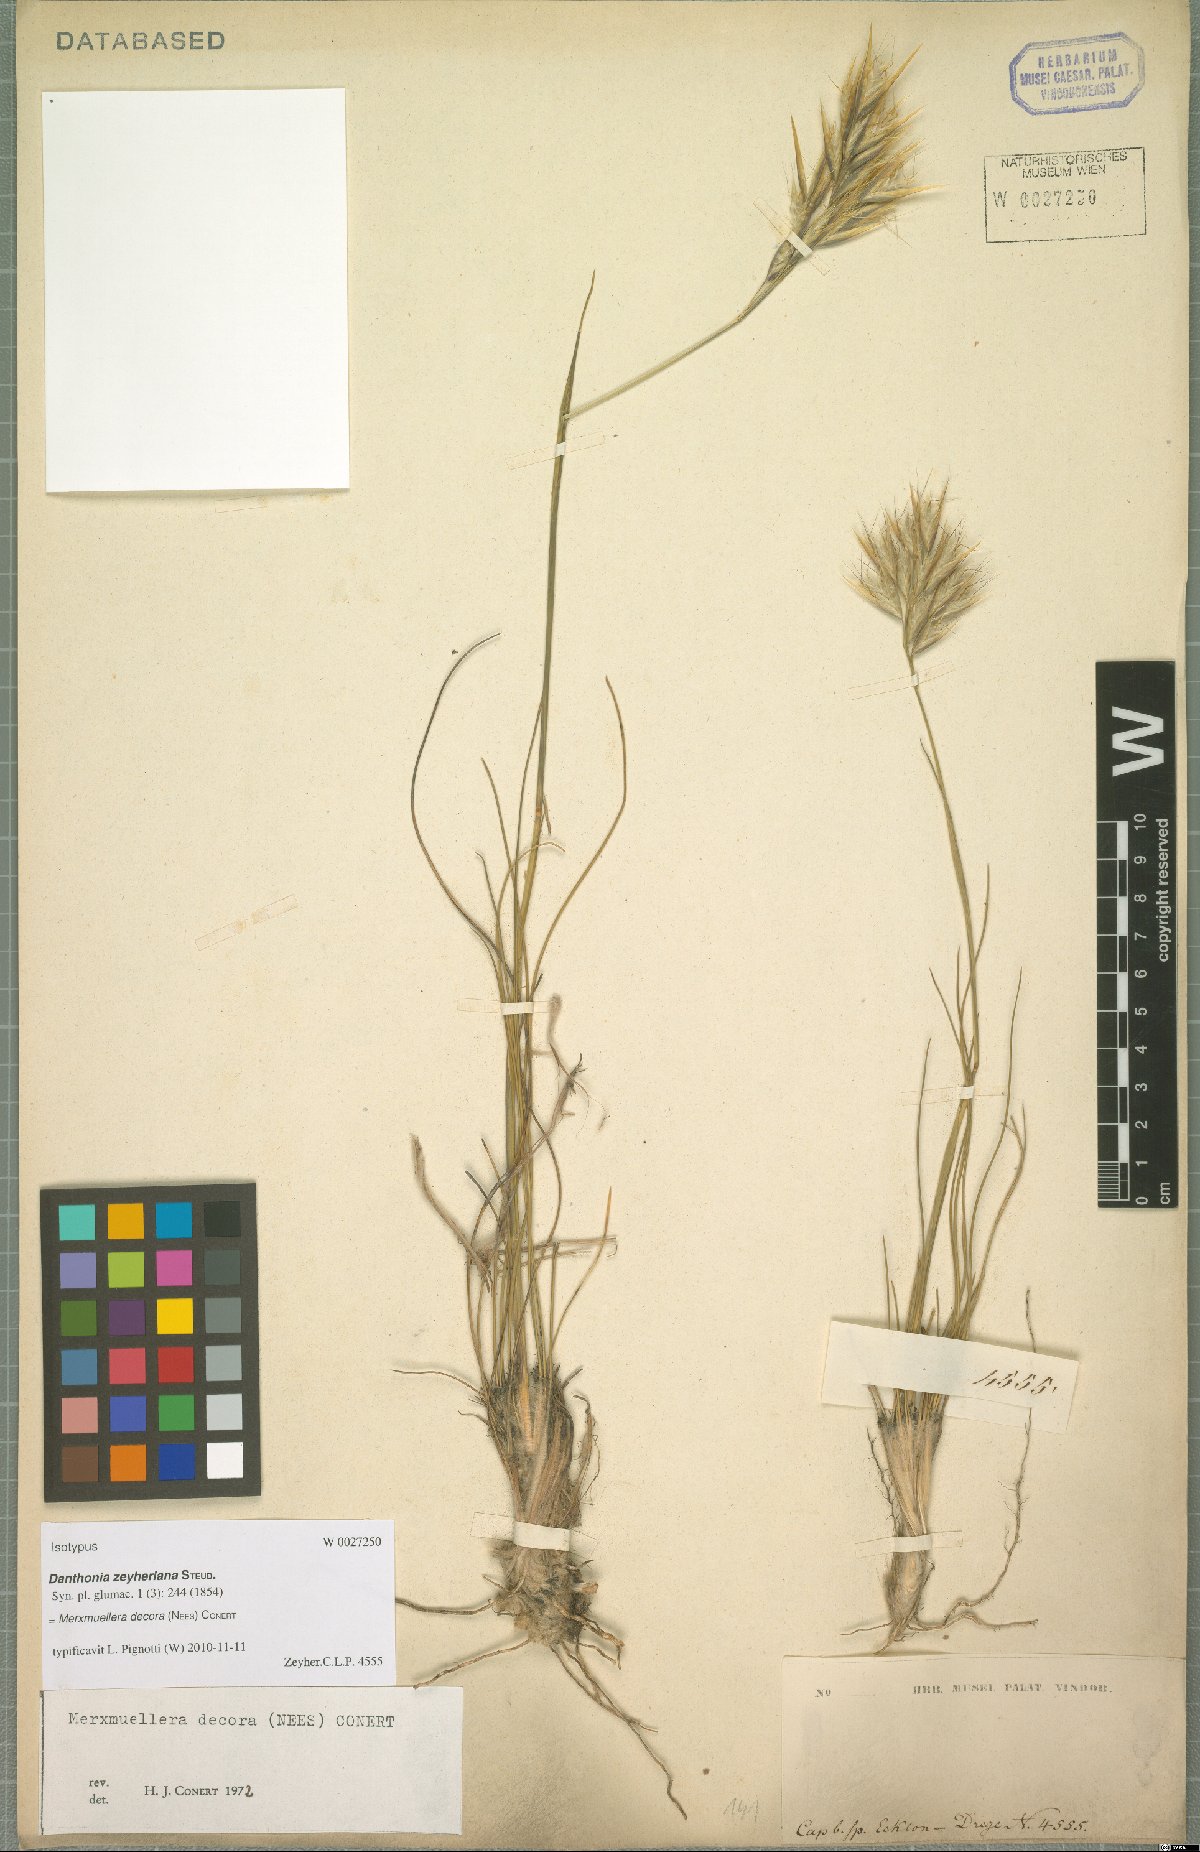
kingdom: Plantae
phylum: Tracheophyta
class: Liliopsida
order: Poales
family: Poaceae
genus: Geochloa
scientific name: Geochloa decora
